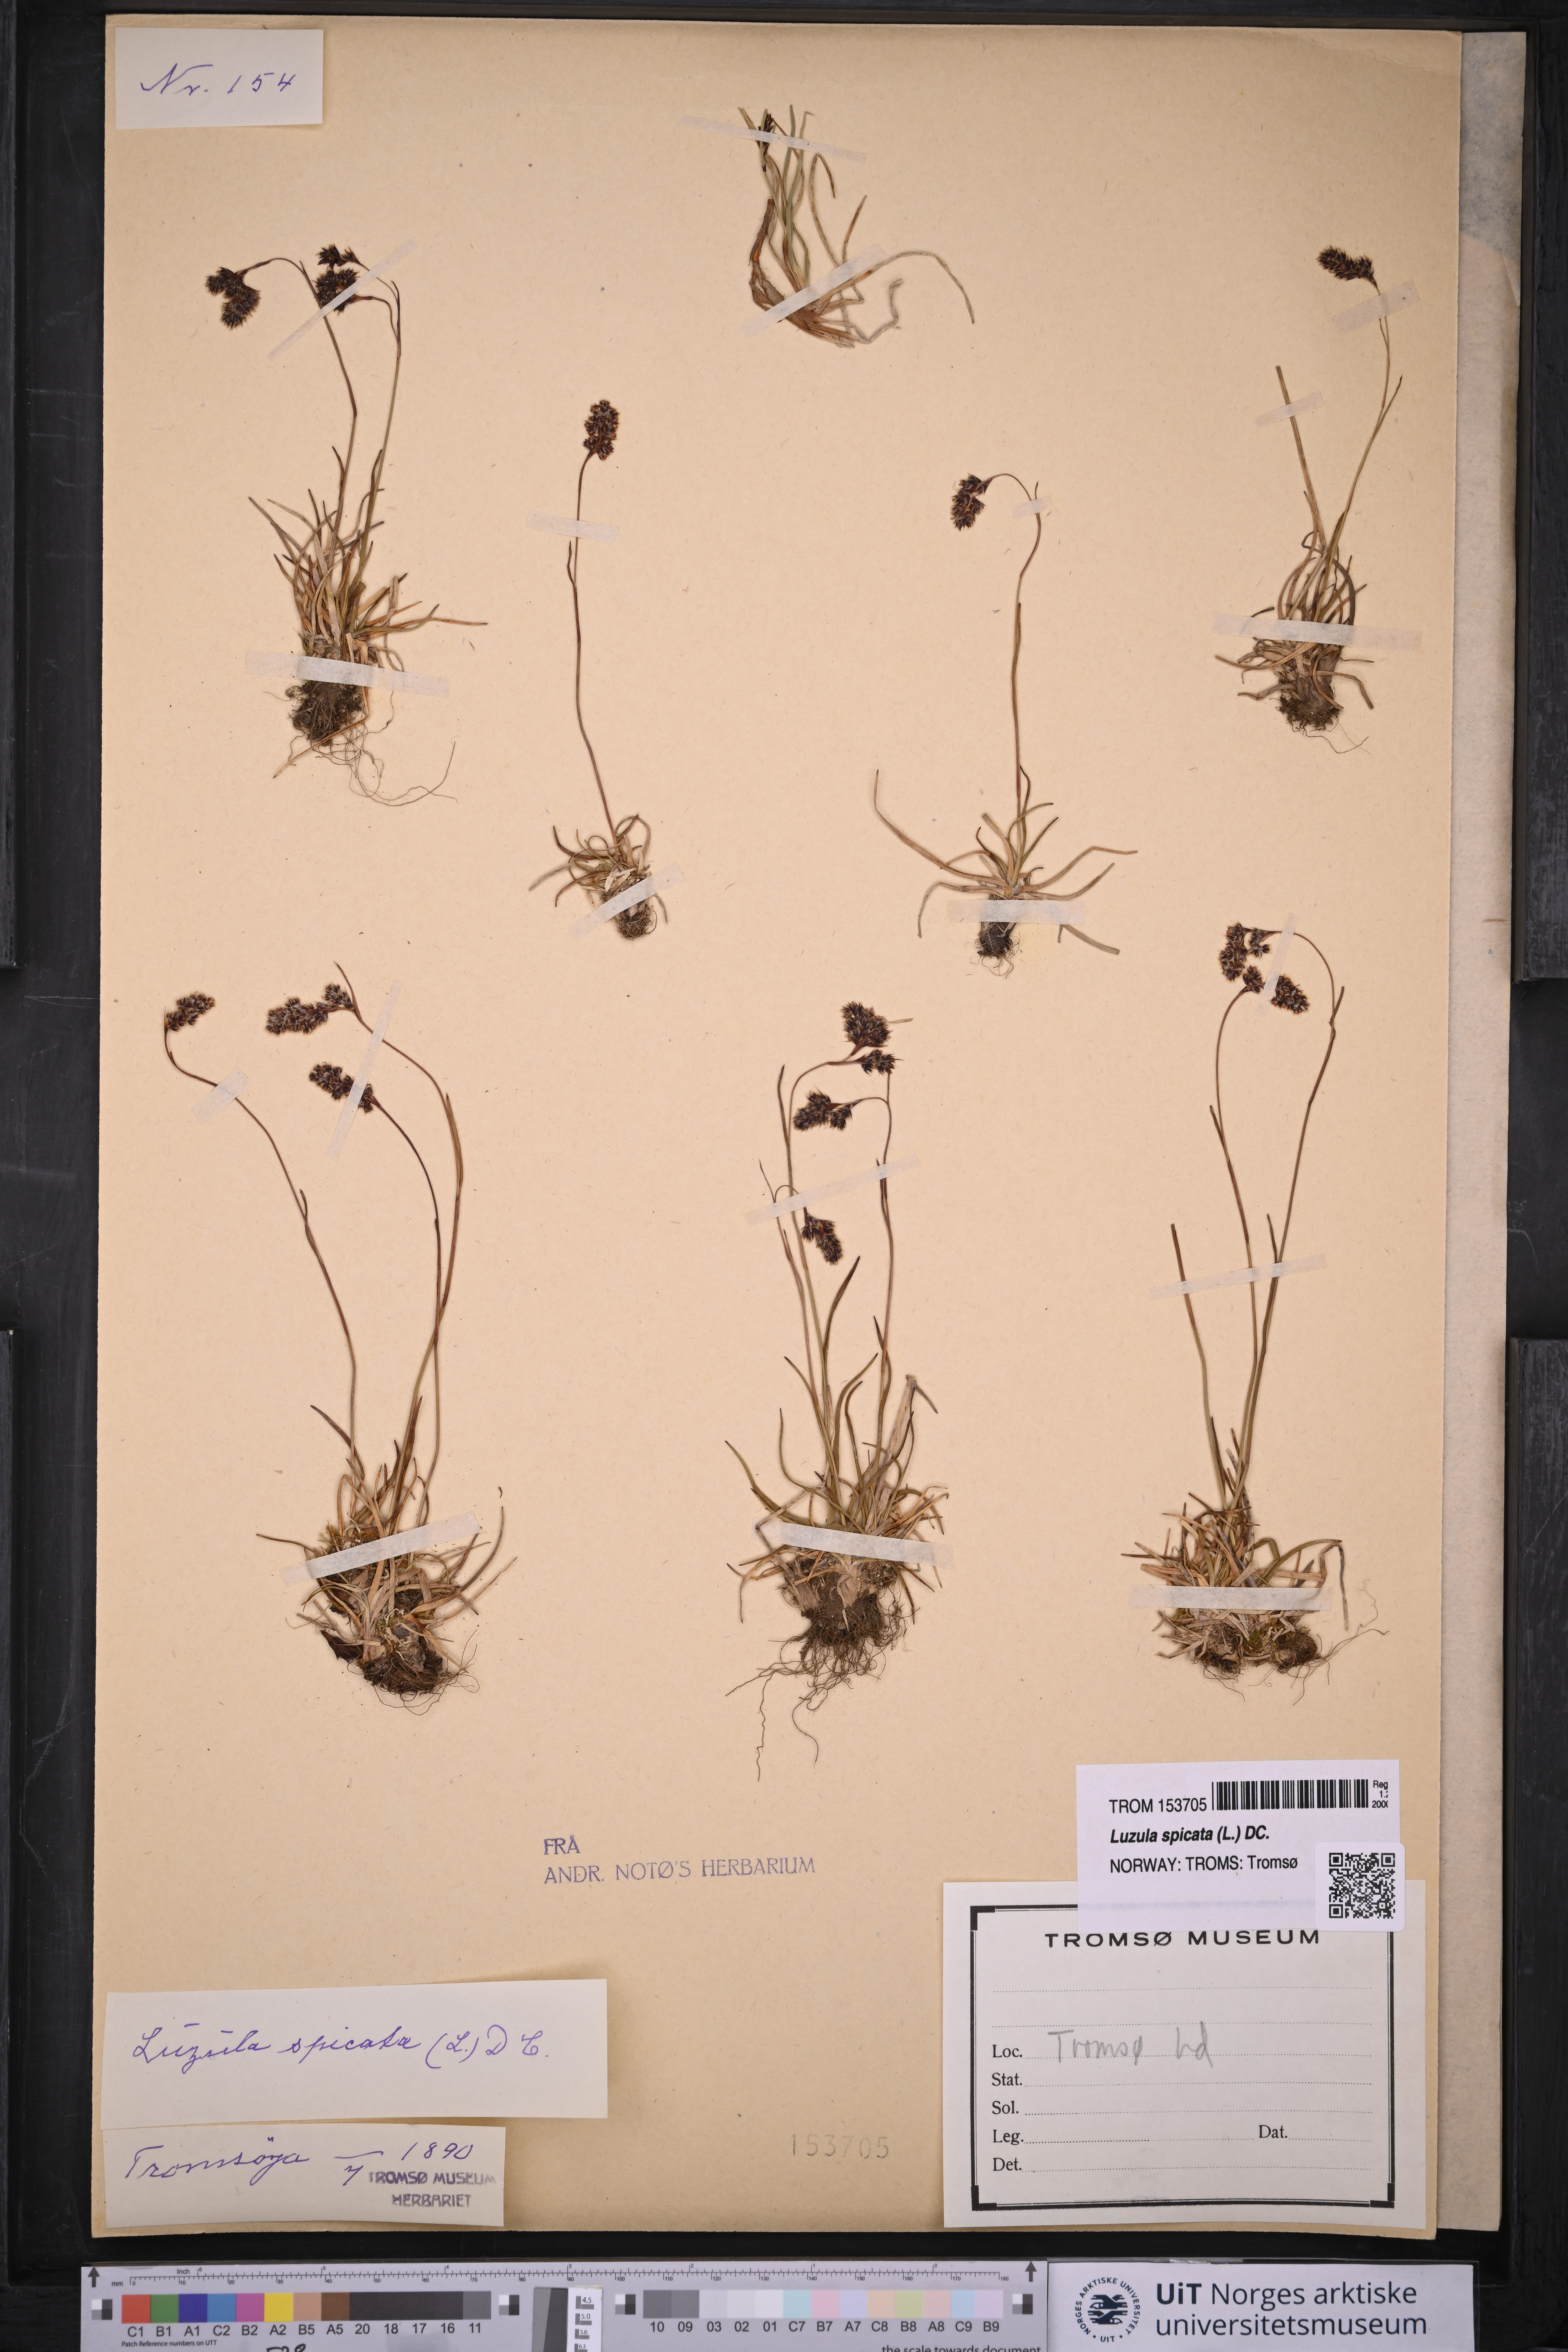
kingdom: Plantae
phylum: Tracheophyta
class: Liliopsida
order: Poales
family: Juncaceae
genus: Luzula
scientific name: Luzula spicata
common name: Spiked wood-rush
